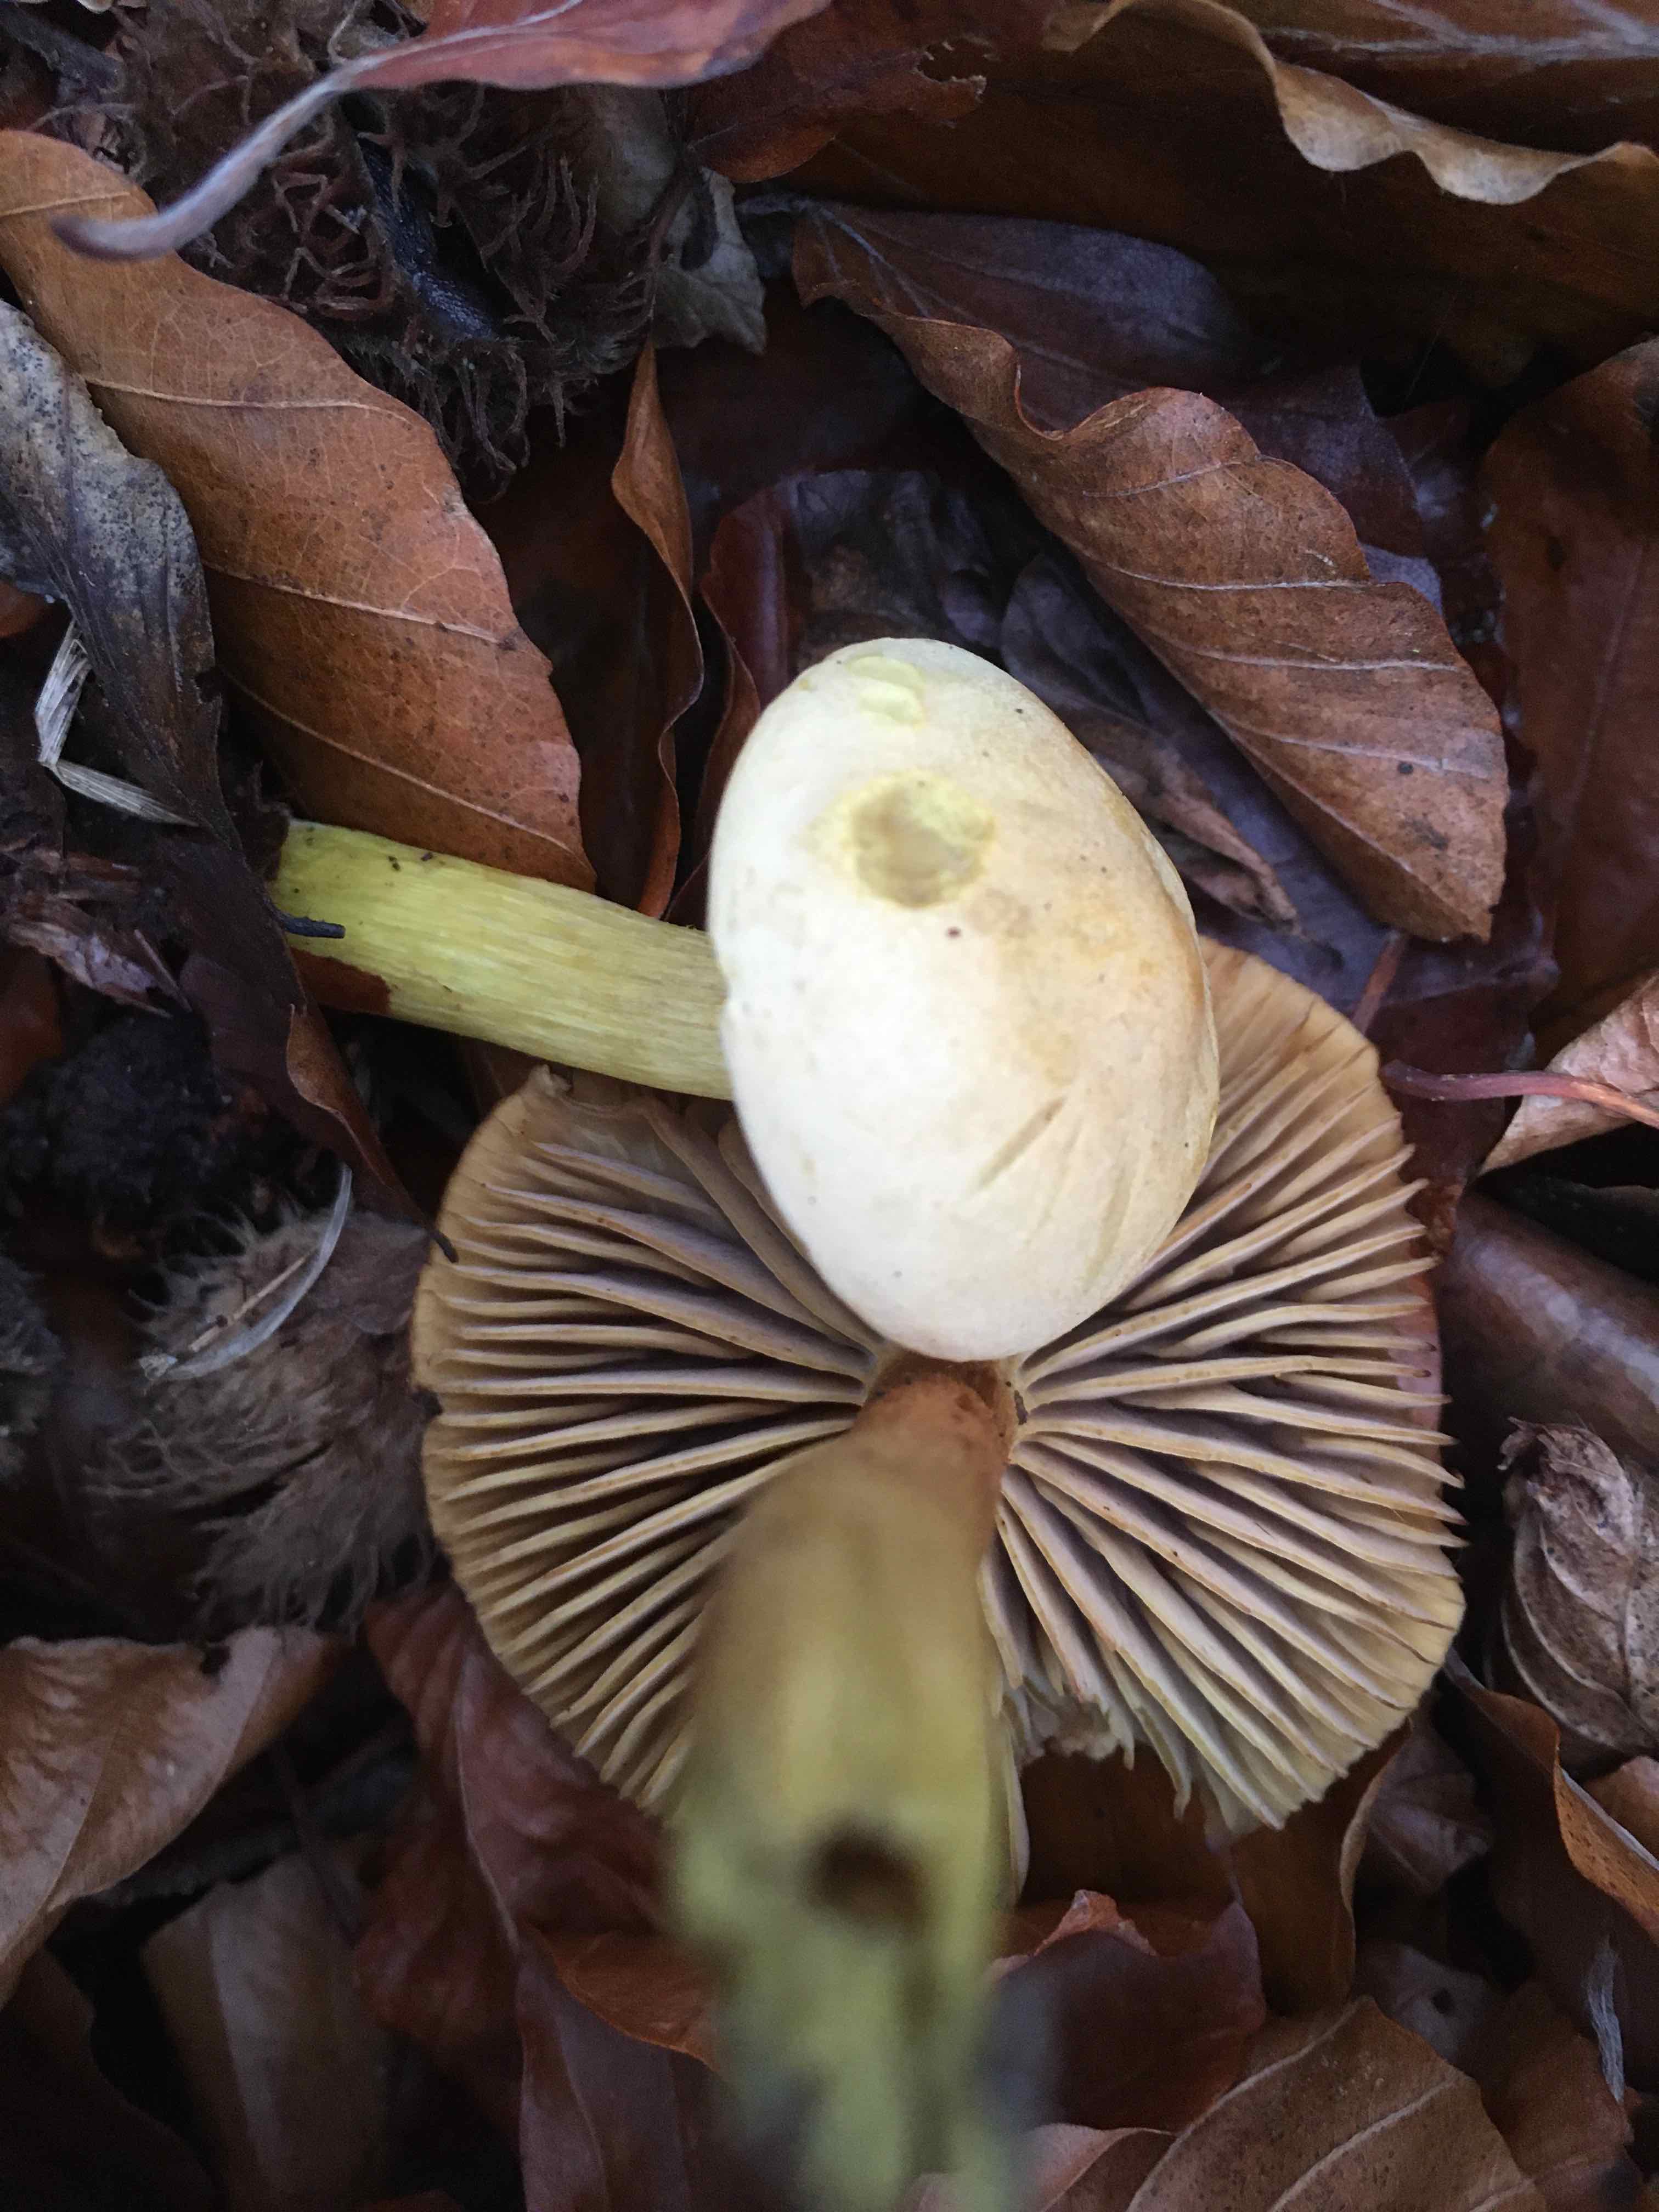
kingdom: Fungi
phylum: Basidiomycota
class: Agaricomycetes
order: Agaricales
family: Tricholomataceae
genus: Tricholoma
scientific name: Tricholoma sulphureum
